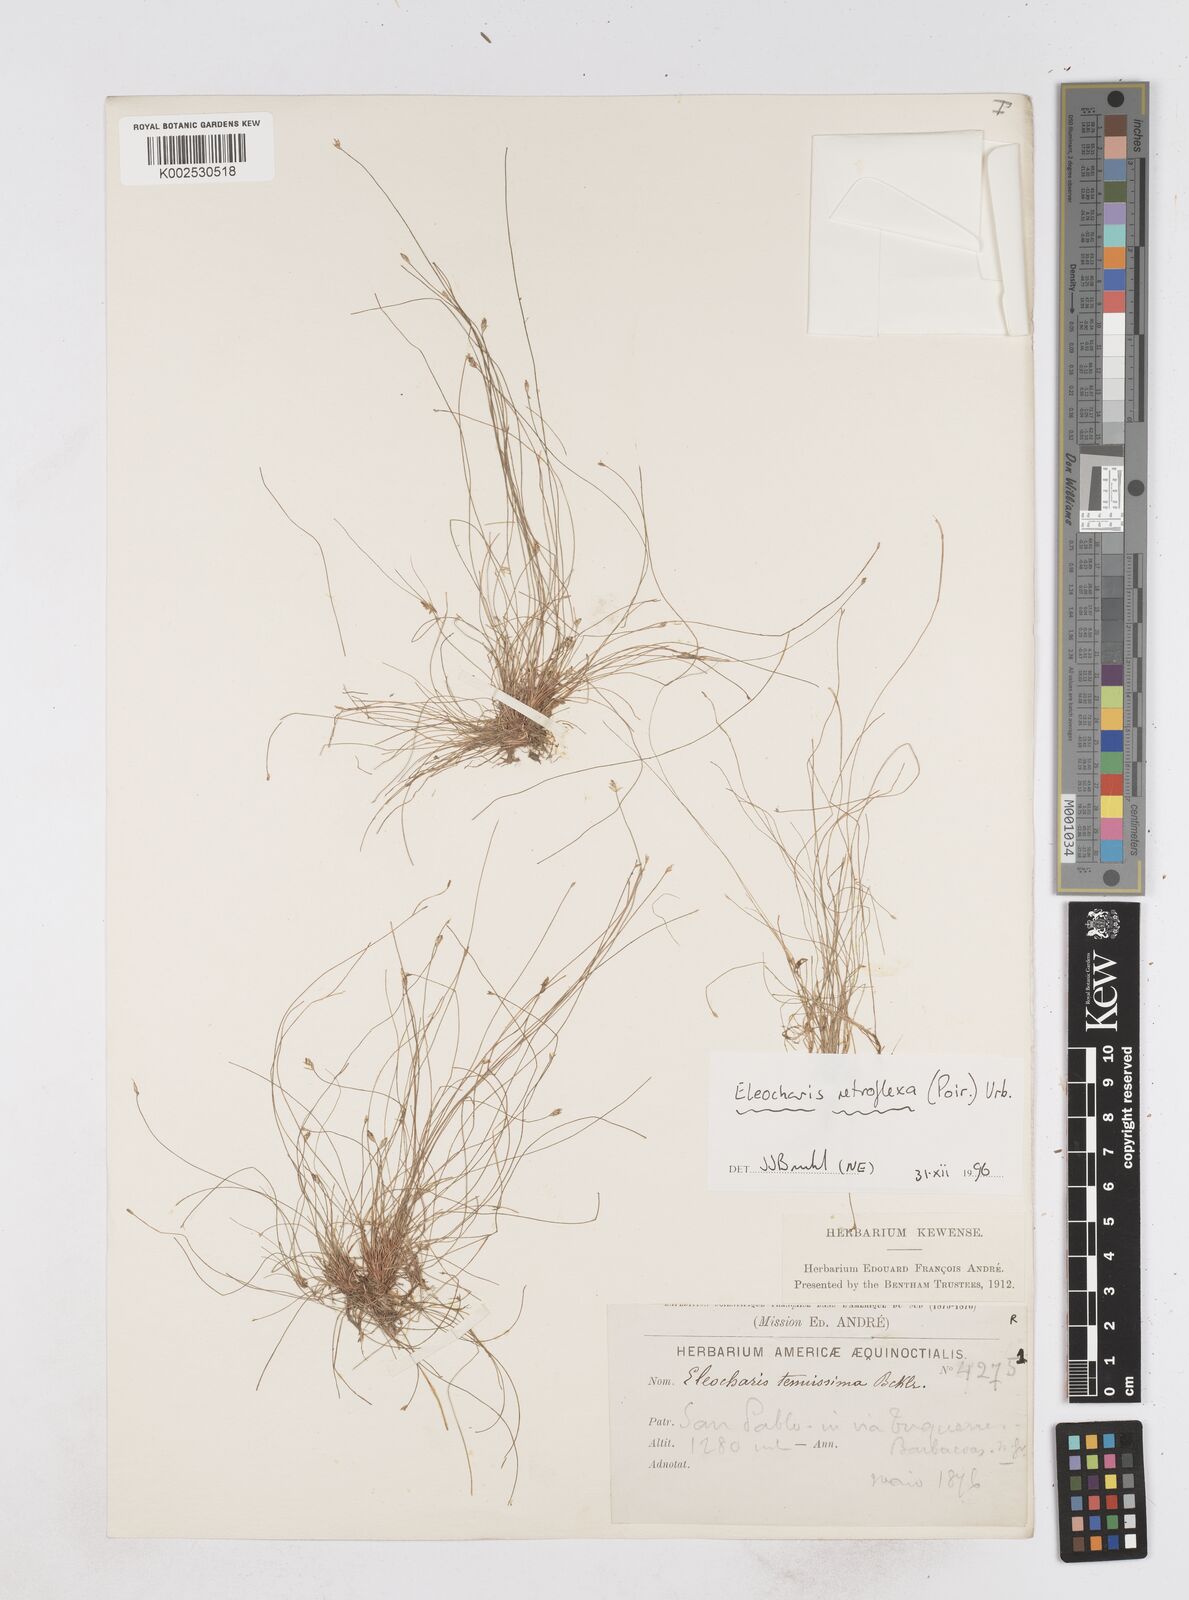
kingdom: Plantae
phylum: Tracheophyta
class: Liliopsida
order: Poales
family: Cyperaceae
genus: Eleocharis
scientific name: Eleocharis retroflexa
